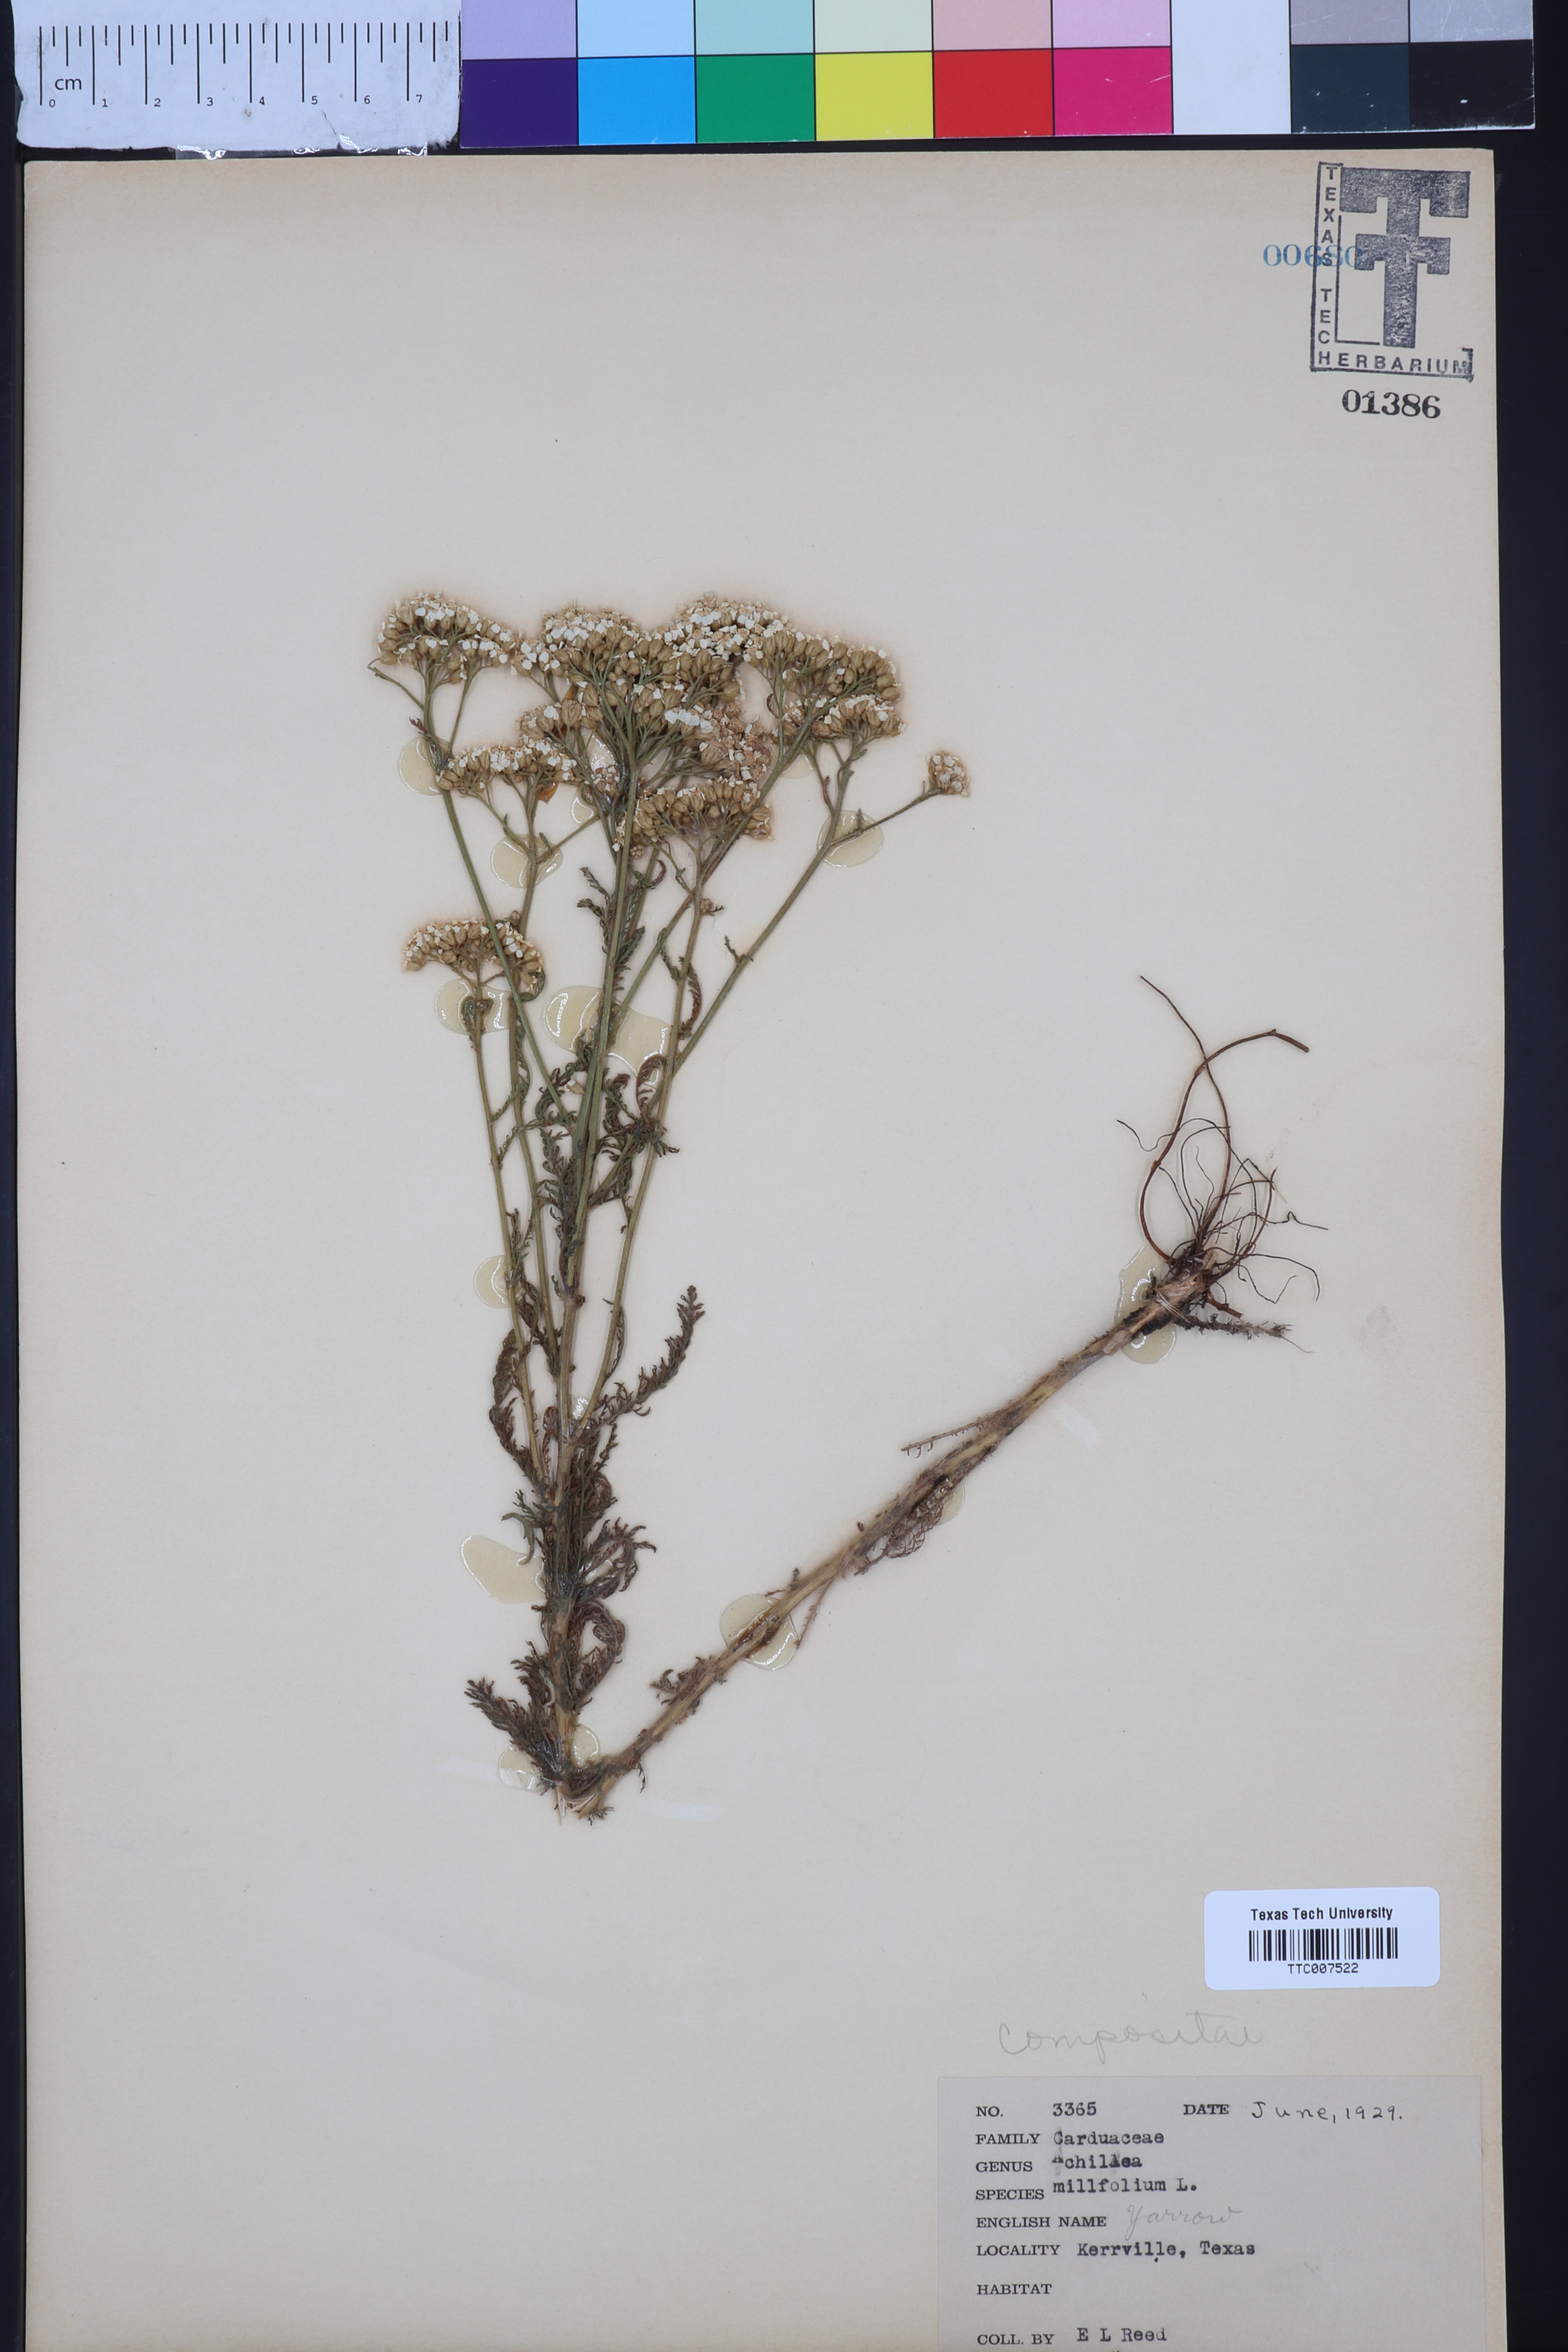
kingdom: Plantae
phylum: Tracheophyta
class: Magnoliopsida
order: Asterales
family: Asteraceae
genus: Achillea
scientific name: Achillea millefolium
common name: Yarrow
